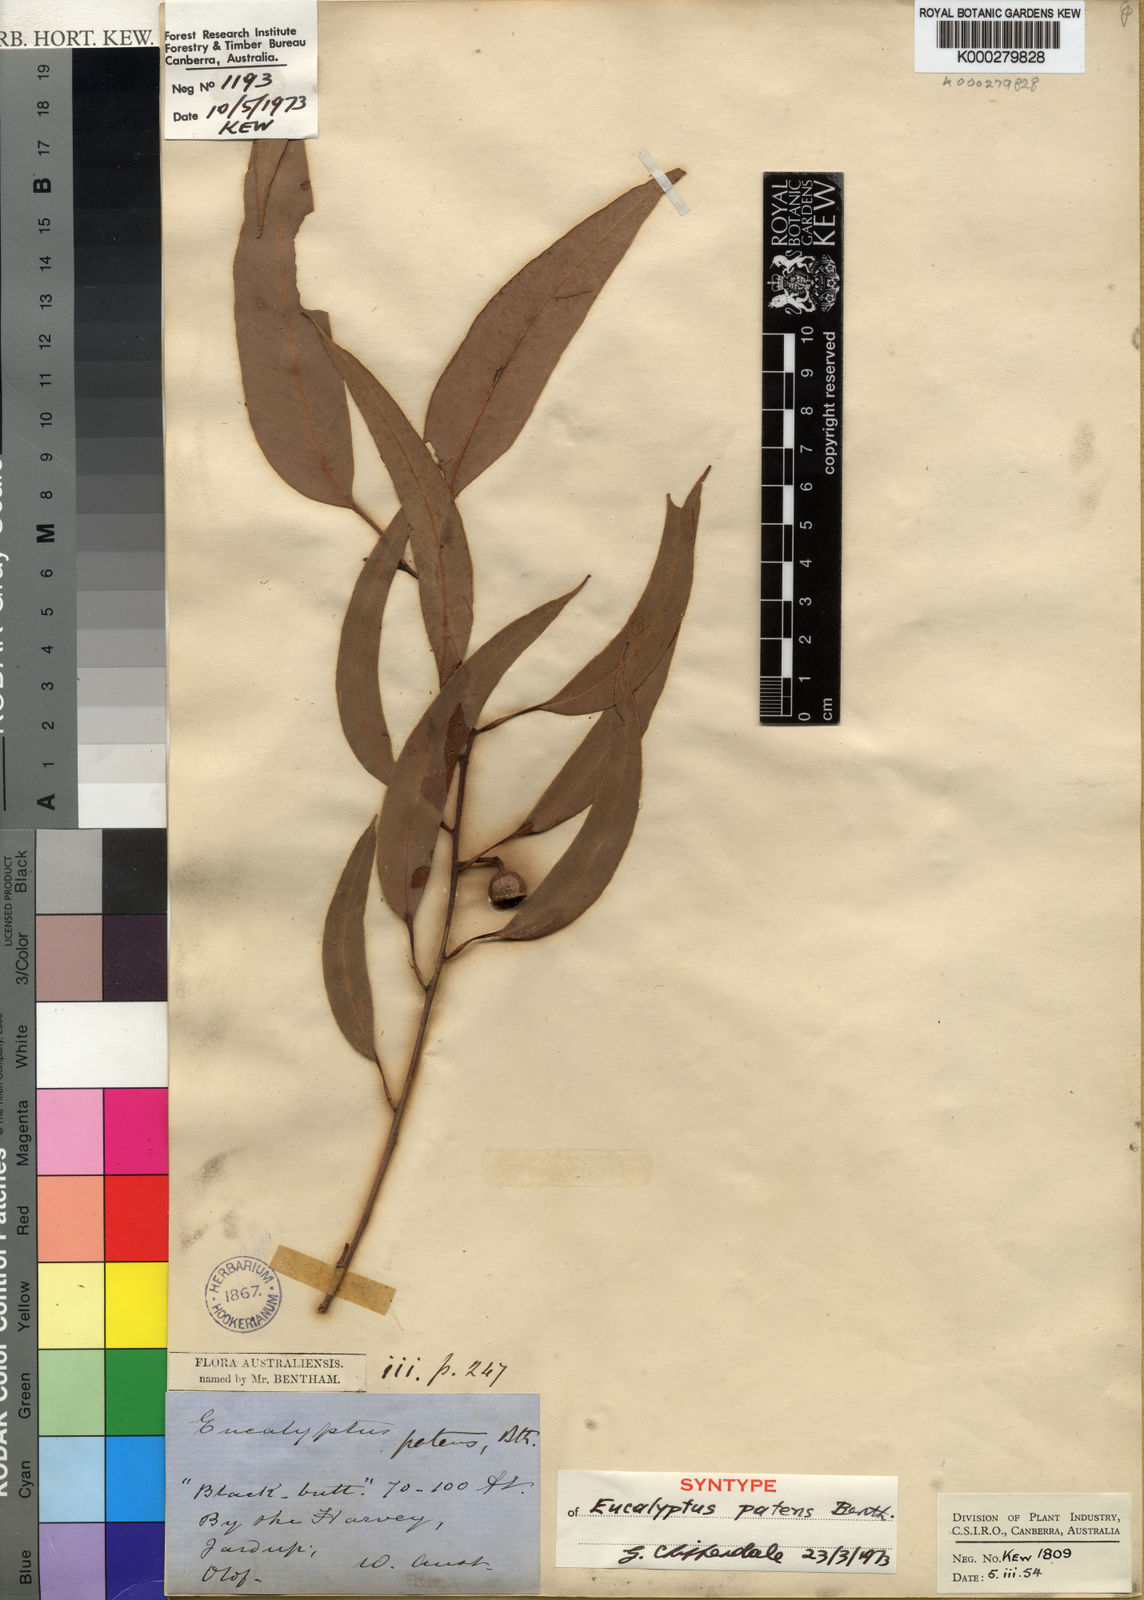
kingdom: Plantae
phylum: Tracheophyta
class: Magnoliopsida
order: Myrtales
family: Myrtaceae
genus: Eucalyptus
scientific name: Eucalyptus patens
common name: Swan river blackbutt
